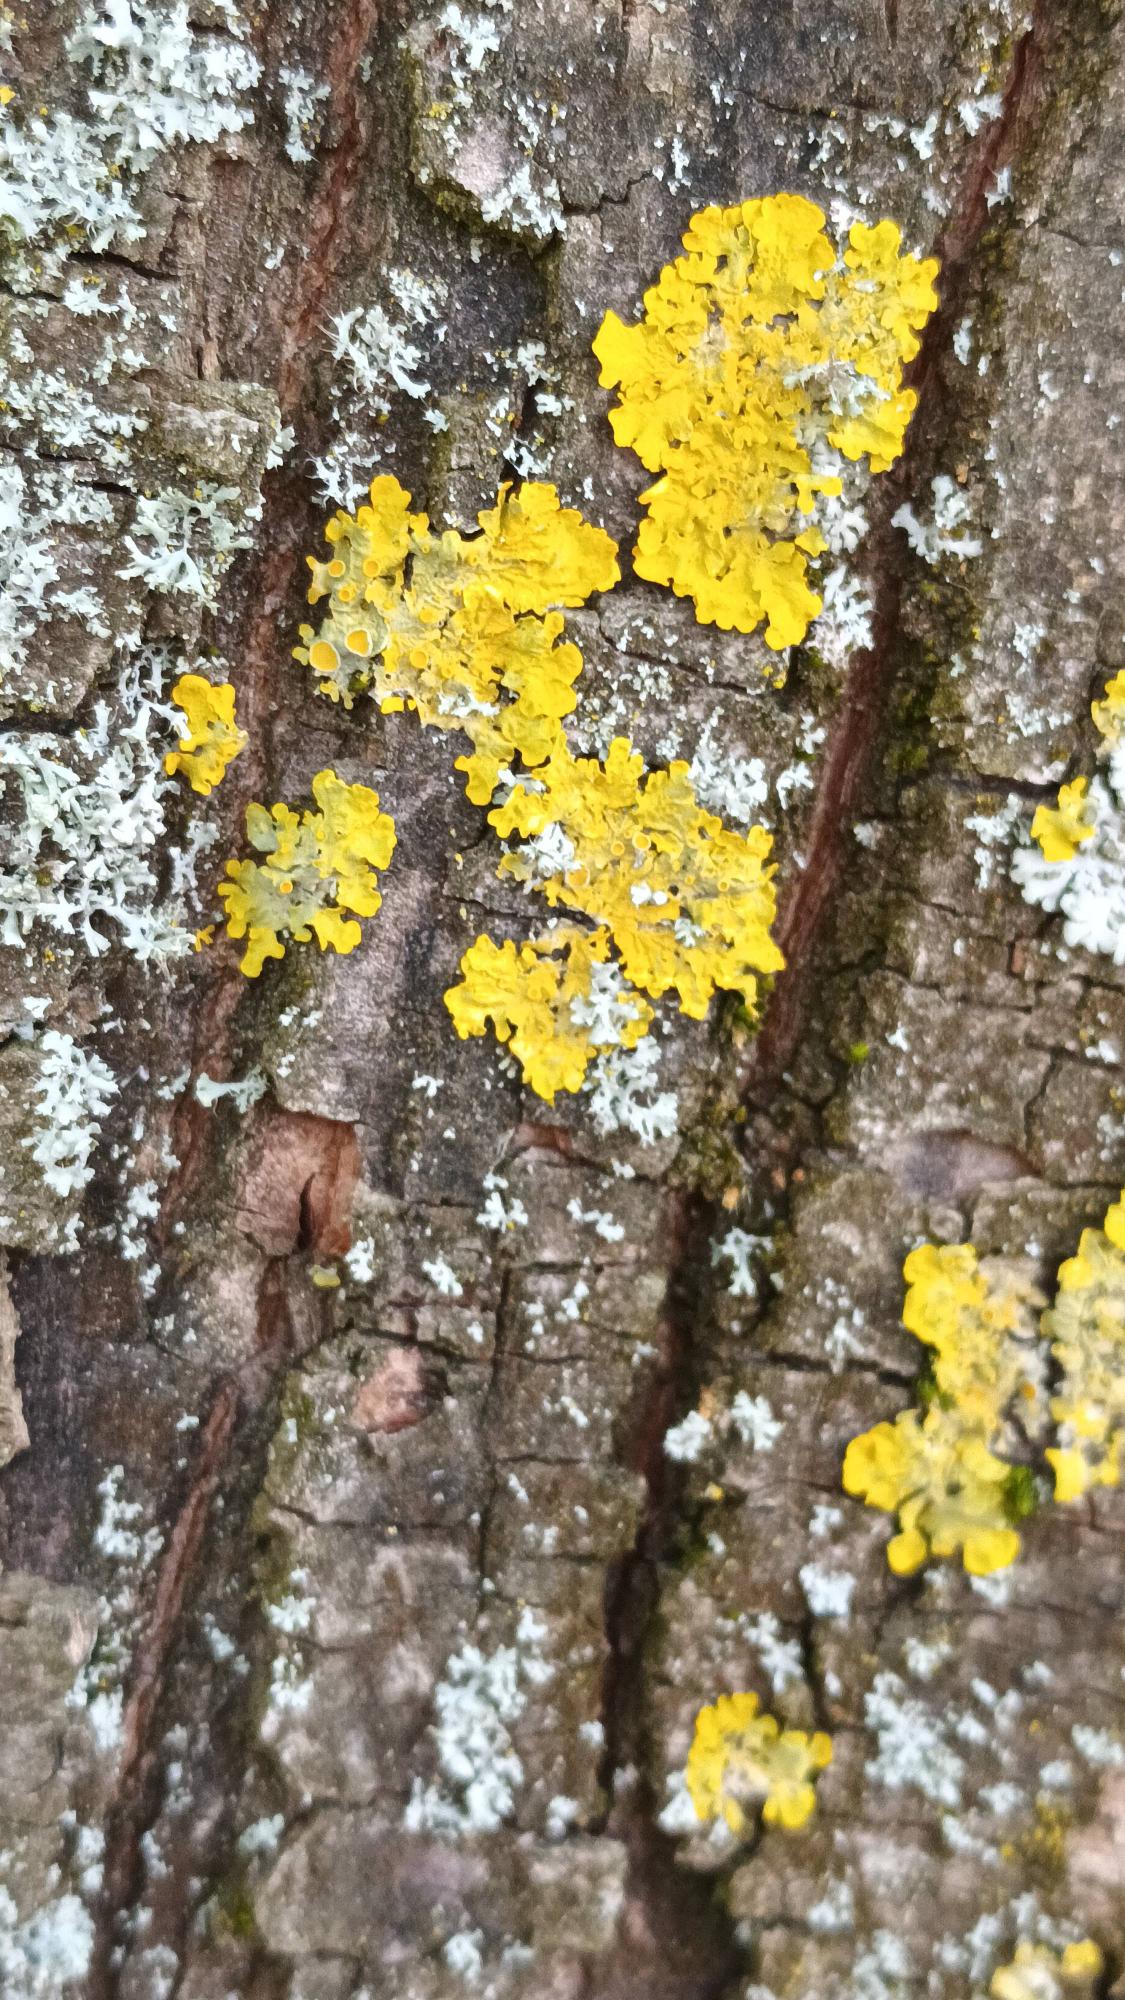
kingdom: Fungi
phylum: Ascomycota
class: Lecanoromycetes
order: Teloschistales
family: Teloschistaceae
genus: Xanthoria
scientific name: Xanthoria parietina
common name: Almindelig væggelav
